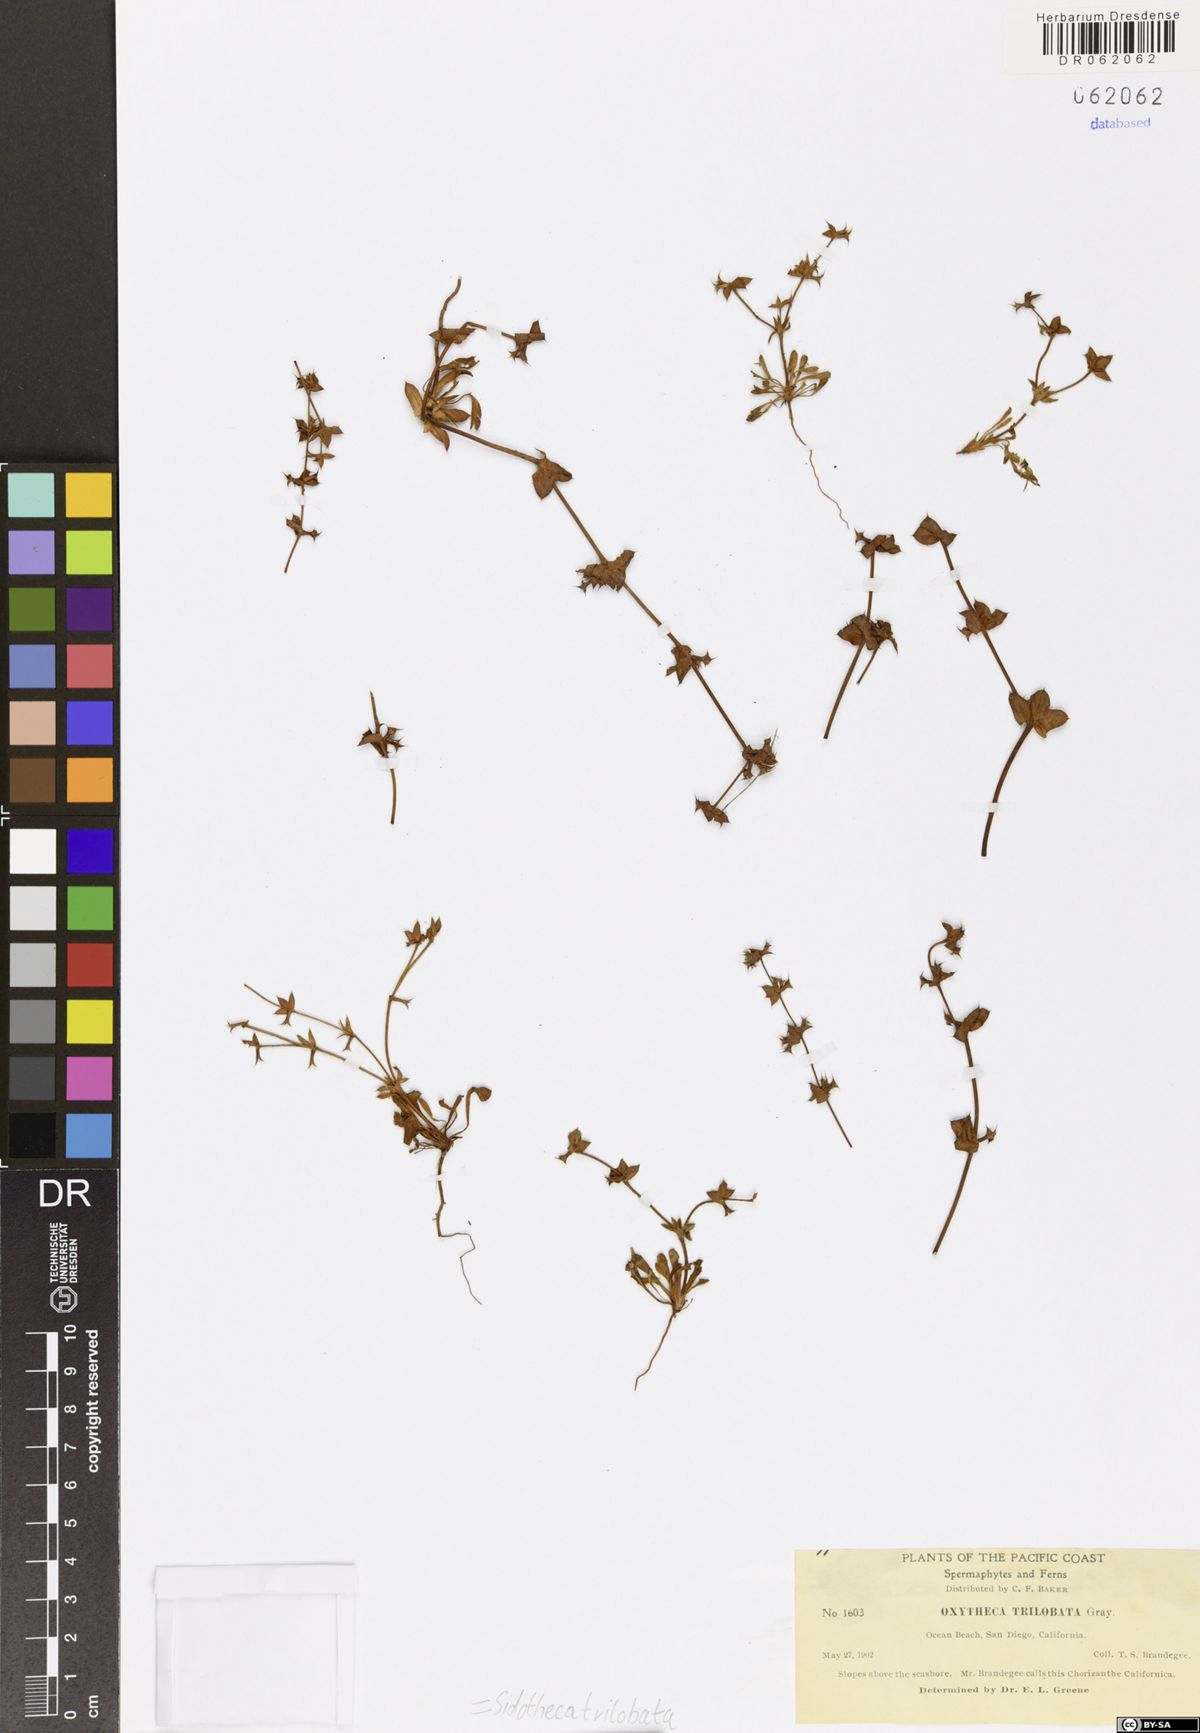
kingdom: Plantae
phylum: Tracheophyta
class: Magnoliopsida
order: Caryophyllales
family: Polygonaceae
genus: Sidotheca
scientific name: Sidotheca trilobata
